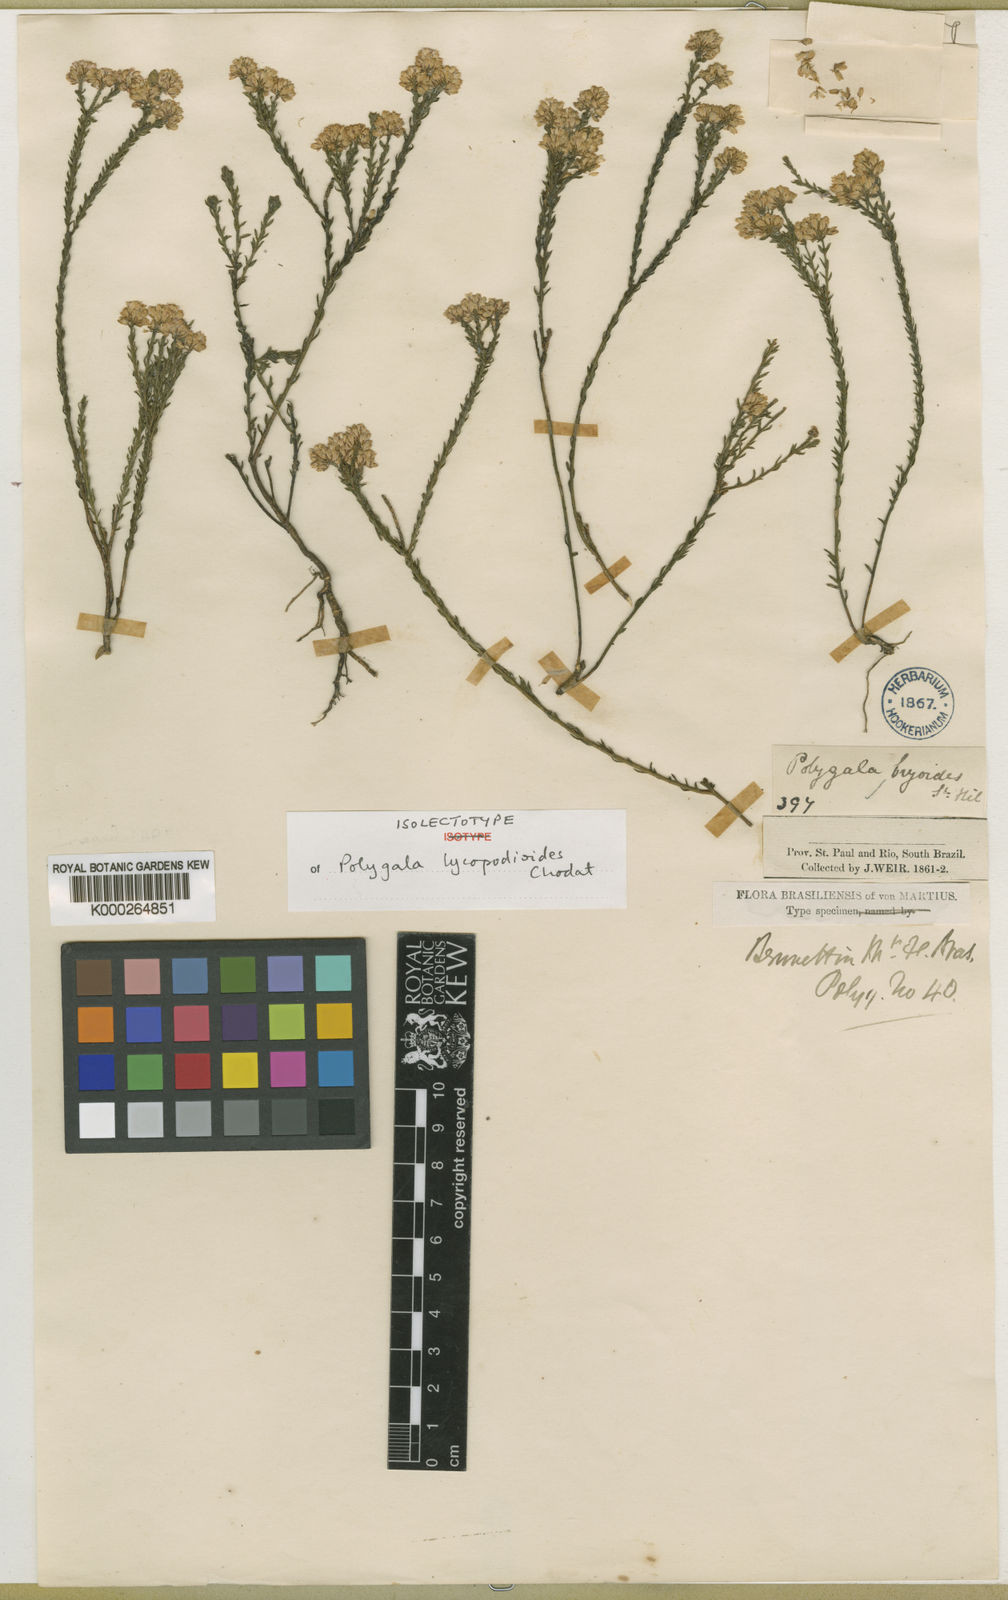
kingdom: Plantae
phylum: Tracheophyta
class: Magnoliopsida
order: Fabales
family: Polygalaceae
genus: Polygala
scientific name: Polygala lycopodioides
